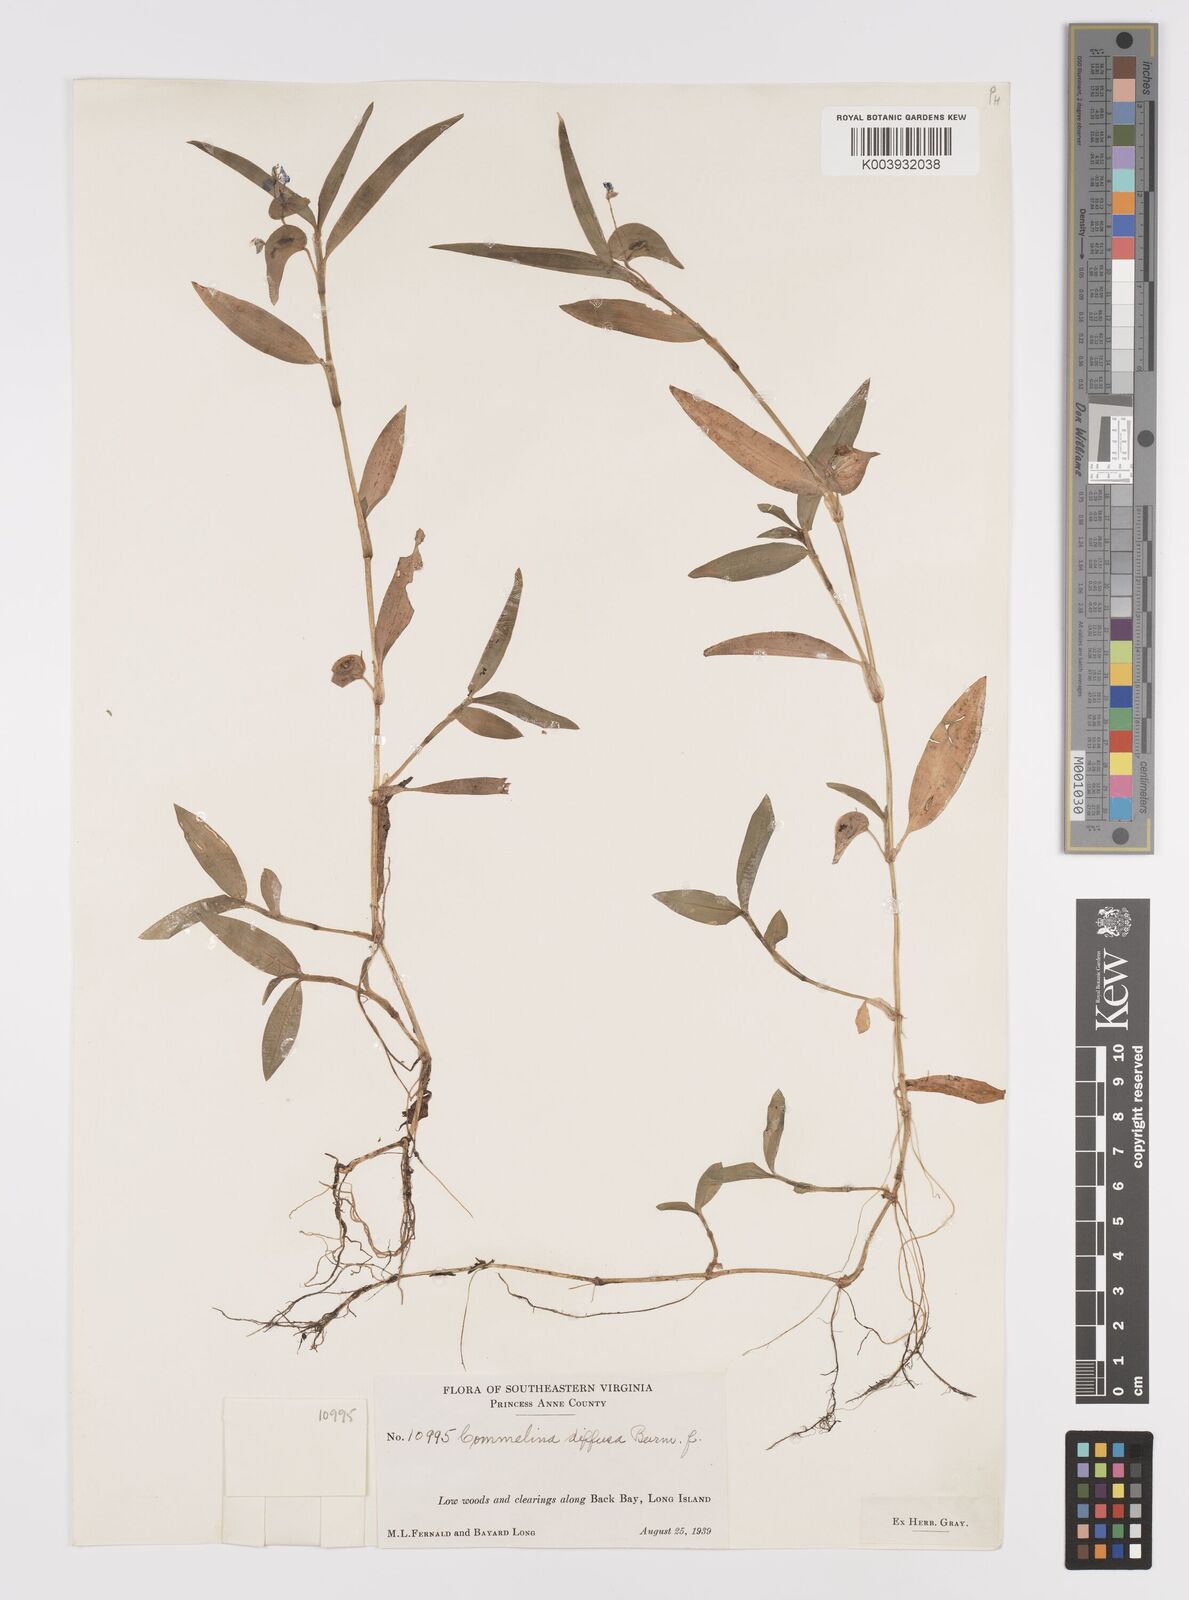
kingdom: Plantae
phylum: Tracheophyta
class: Liliopsida
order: Commelinales
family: Commelinaceae
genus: Commelina
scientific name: Commelina diffusa
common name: Climbing dayflower
